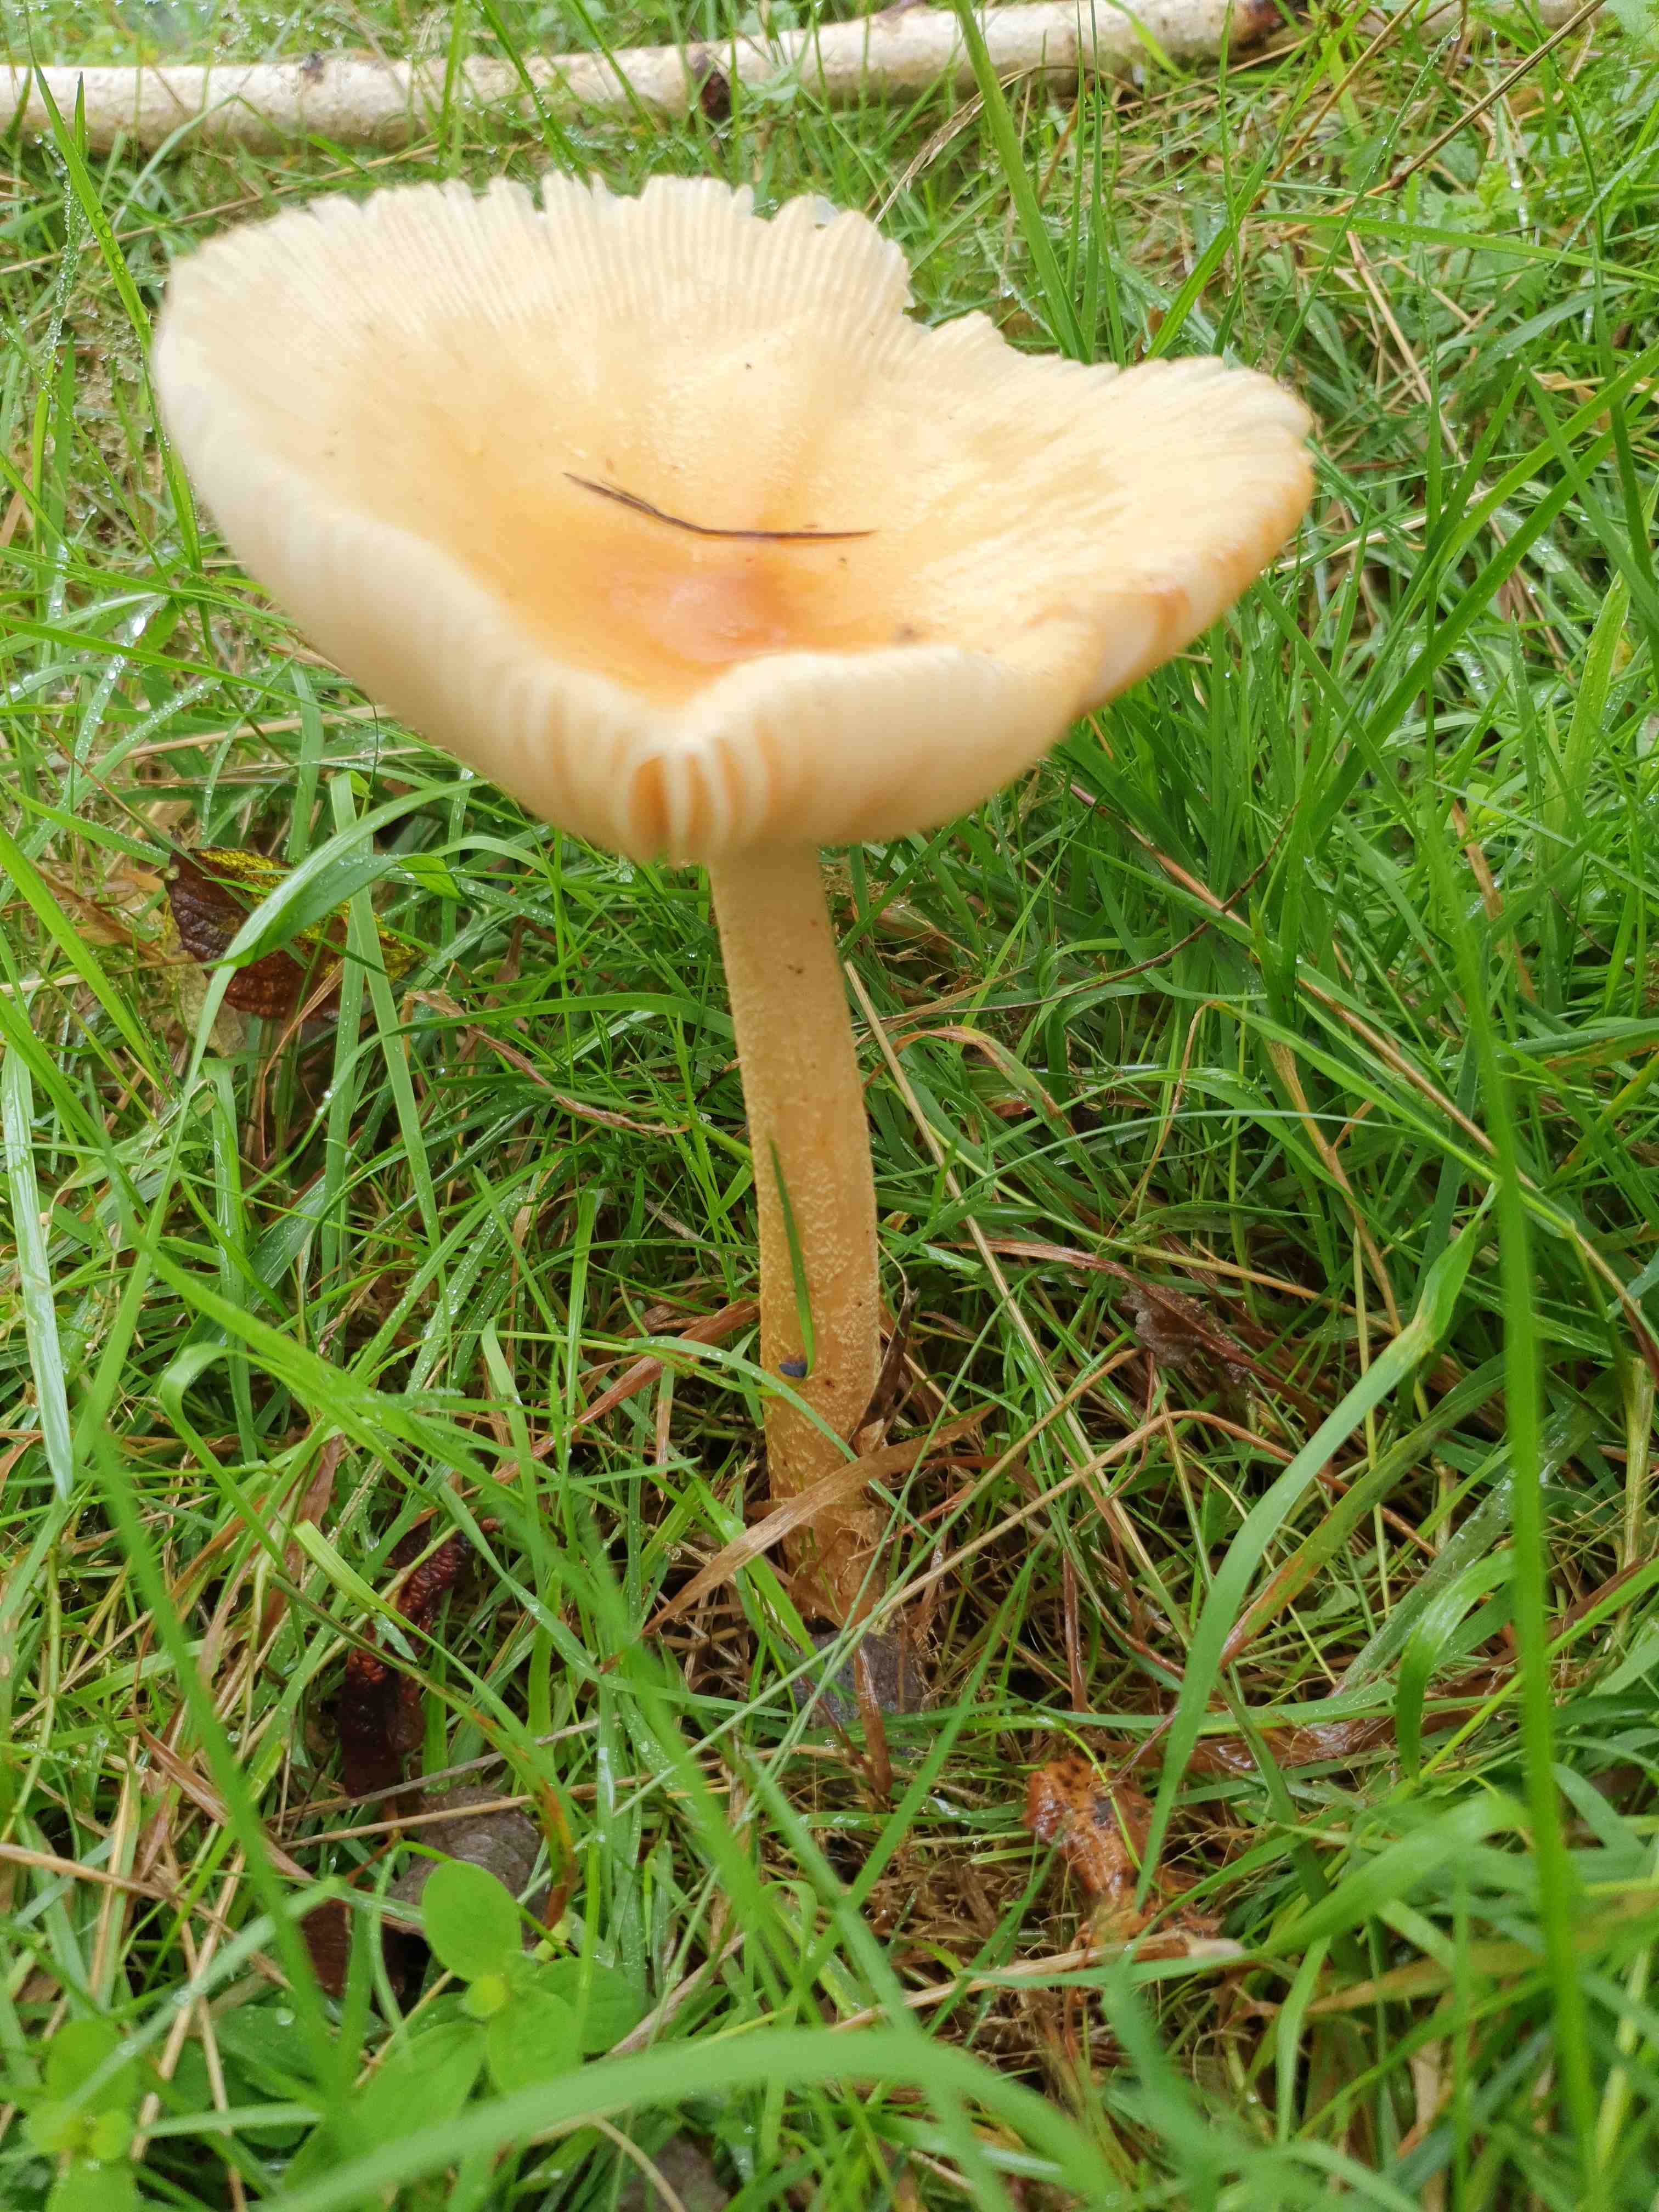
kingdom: Fungi
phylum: Basidiomycota
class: Agaricomycetes
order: Agaricales
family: Amanitaceae
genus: Amanita
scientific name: Amanita crocea
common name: gylden kam-fluesvamp
